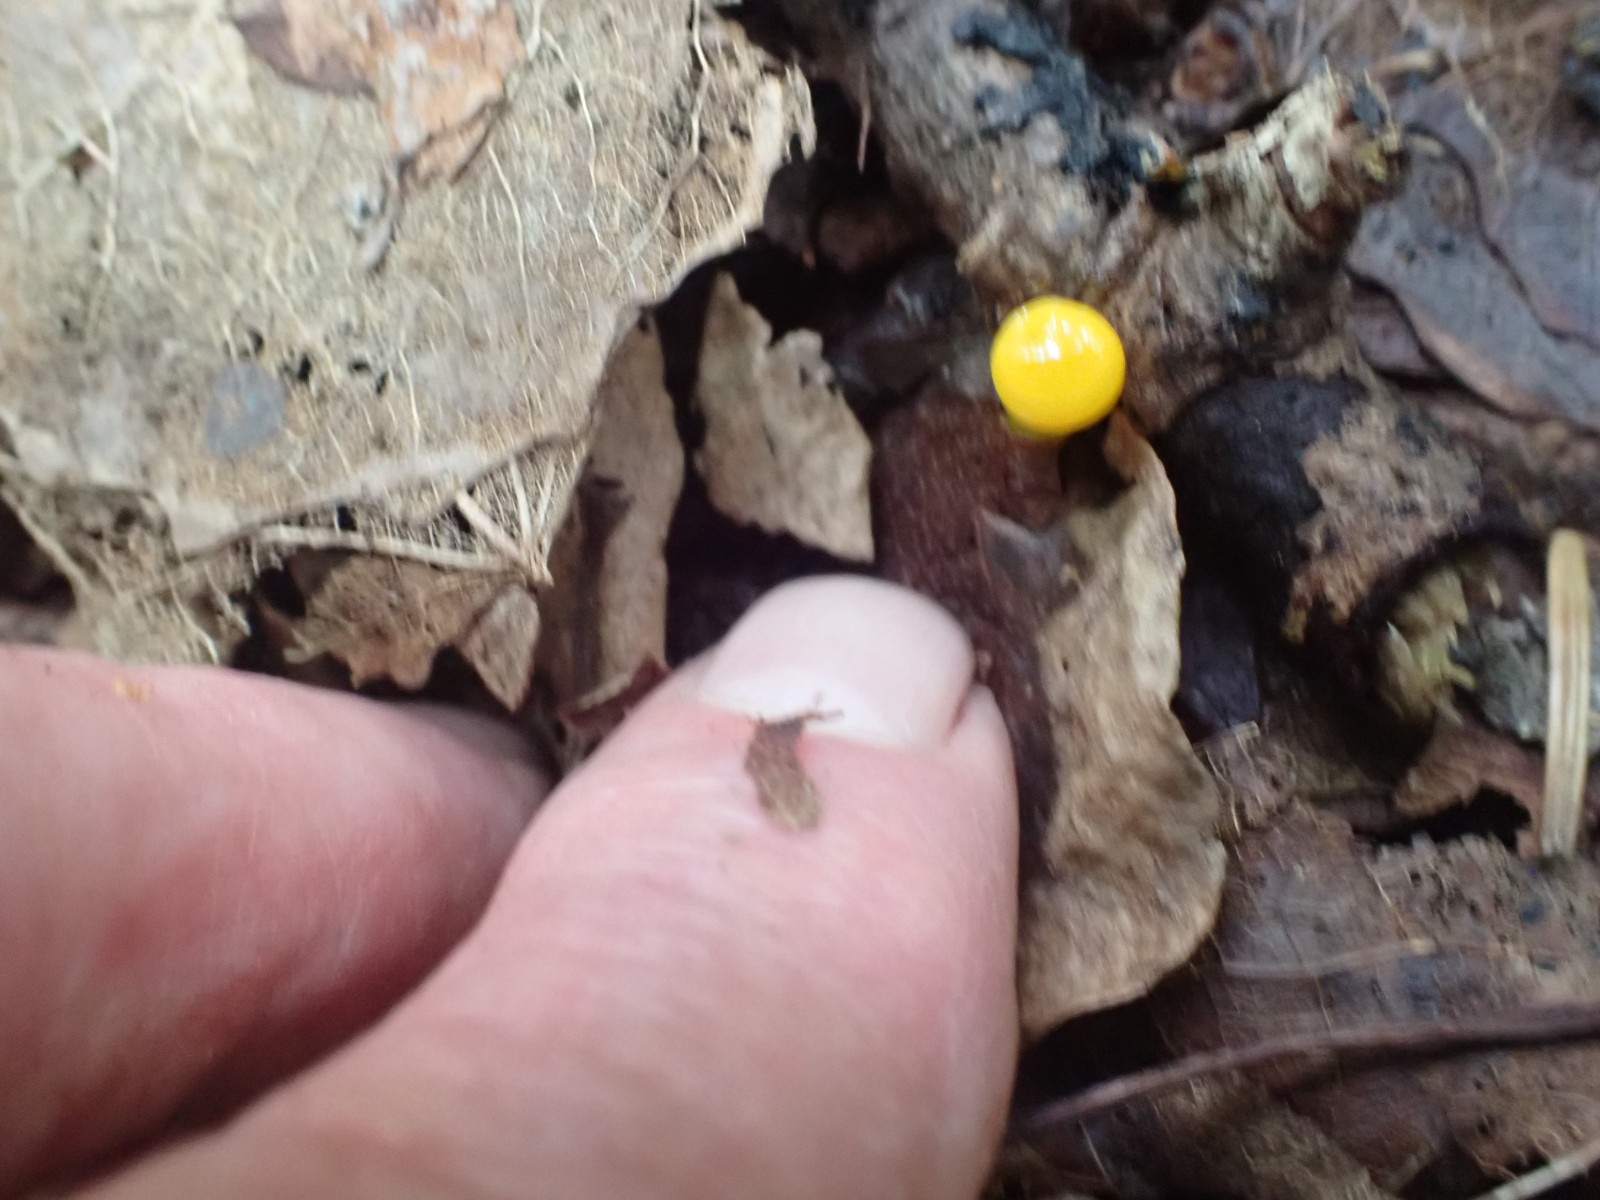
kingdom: Fungi
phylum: Basidiomycota
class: Agaricomycetes
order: Agaricales
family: Hygrophoraceae
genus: Gloioxanthomyces
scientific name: Gloioxanthomyces vitellinus
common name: kromgul vokshat
